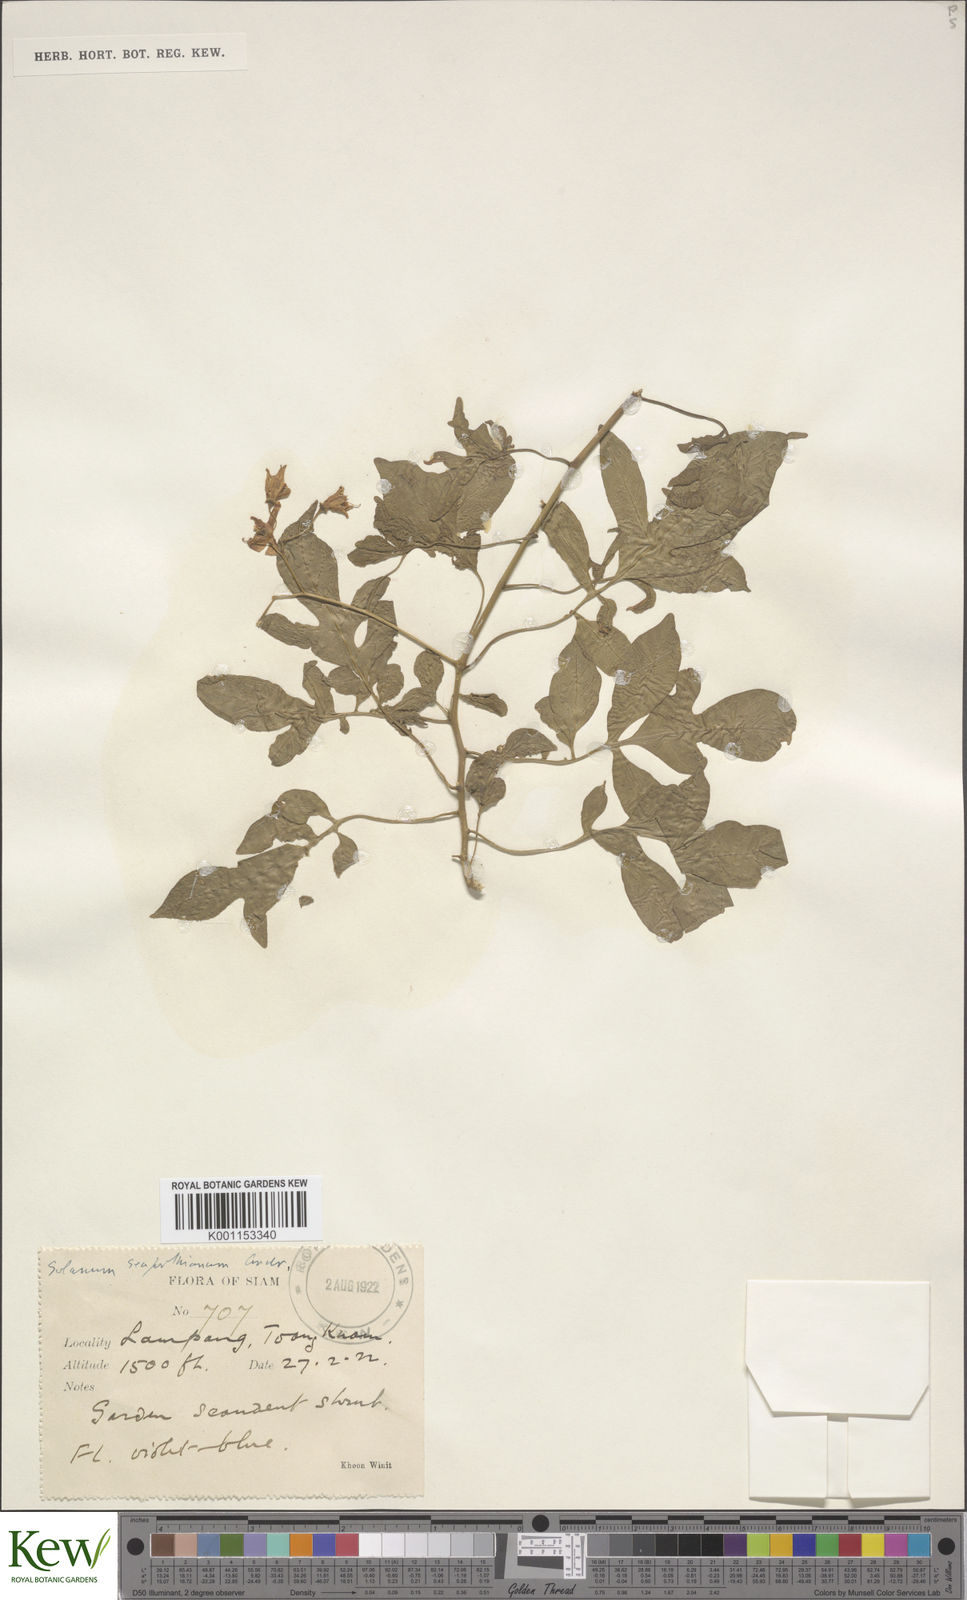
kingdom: Plantae
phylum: Tracheophyta
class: Magnoliopsida
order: Solanales
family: Solanaceae
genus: Solanum
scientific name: Solanum seaforthianum
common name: Brazilian nightshade
